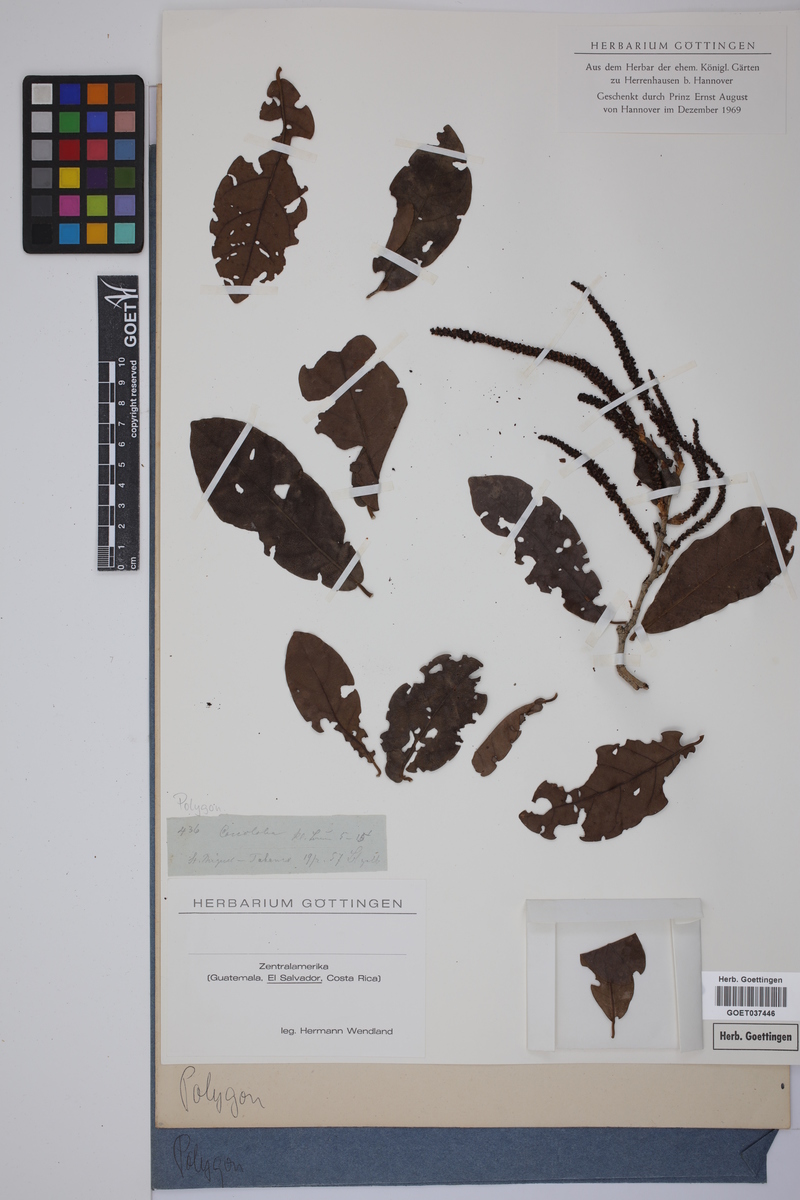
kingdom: Plantae
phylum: Tracheophyta
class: Magnoliopsida
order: Caryophyllales
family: Polygonaceae
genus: Coccoloba
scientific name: Coccoloba floribunda
